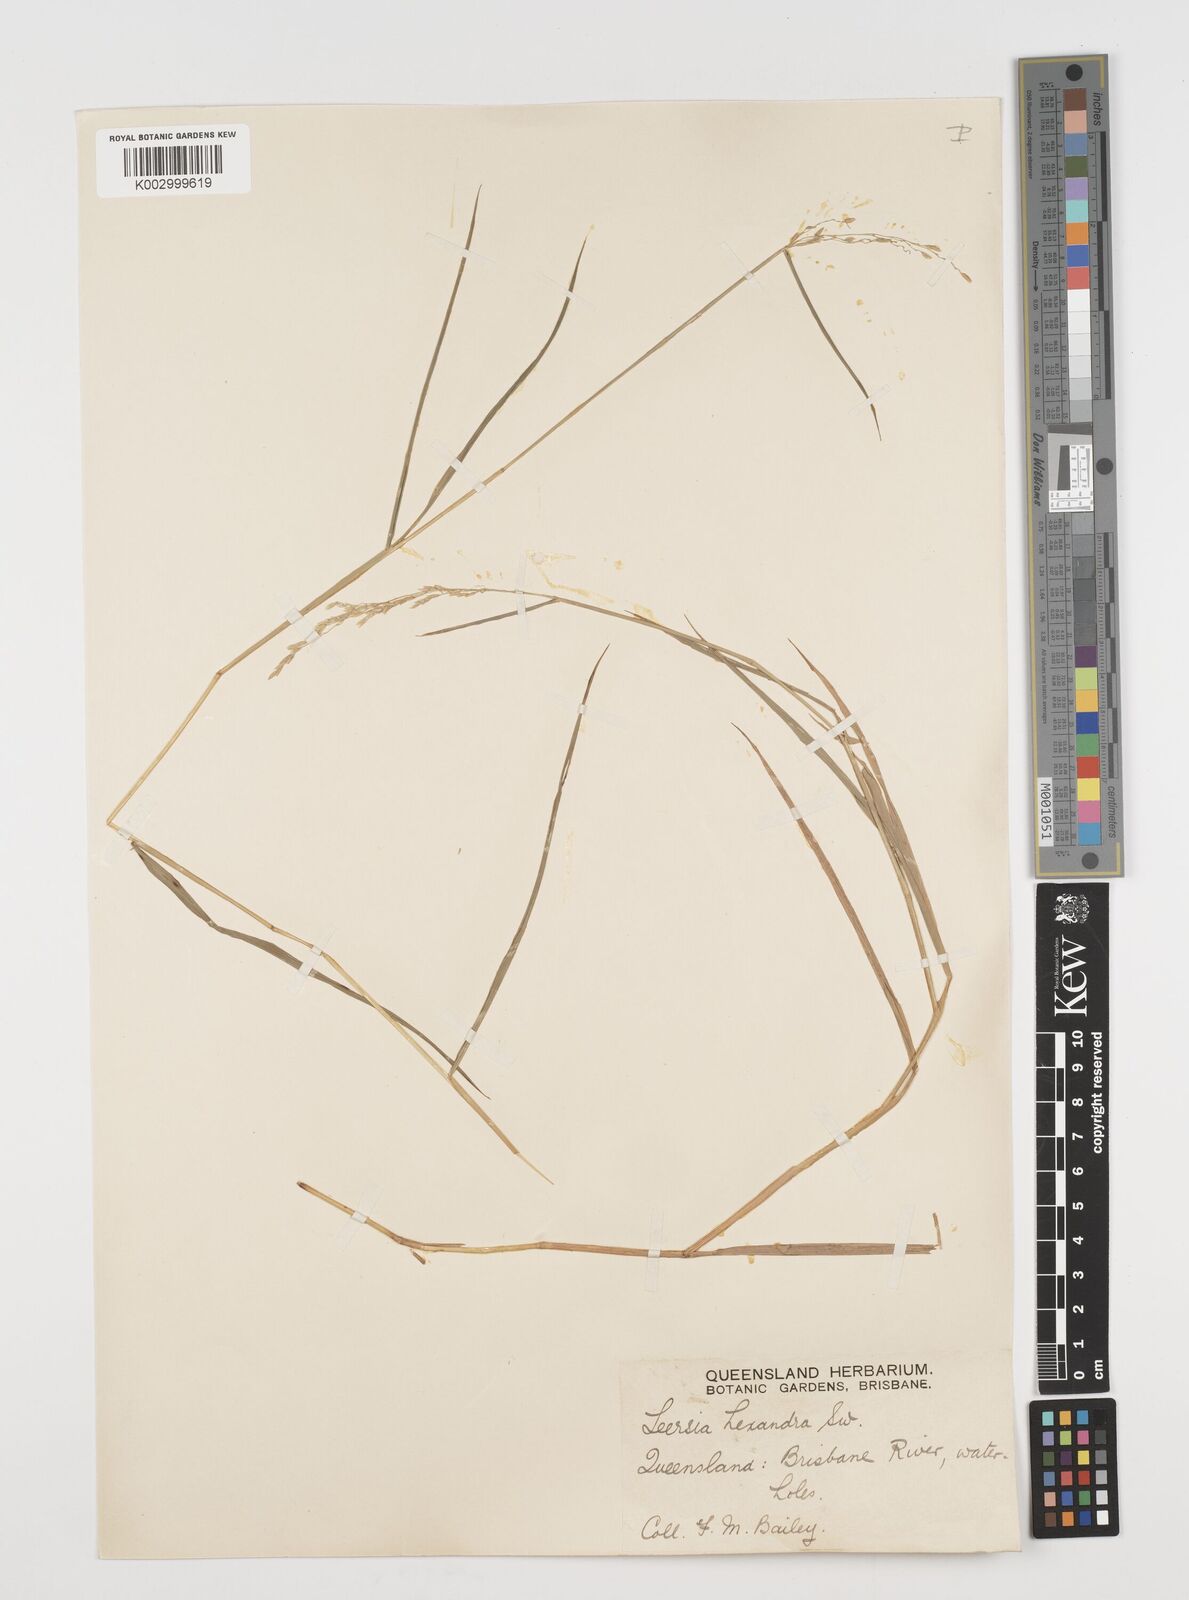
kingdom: Plantae
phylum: Tracheophyta
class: Liliopsida
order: Poales
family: Poaceae
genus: Leersia
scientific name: Leersia hexandra
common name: Southern cut grass
